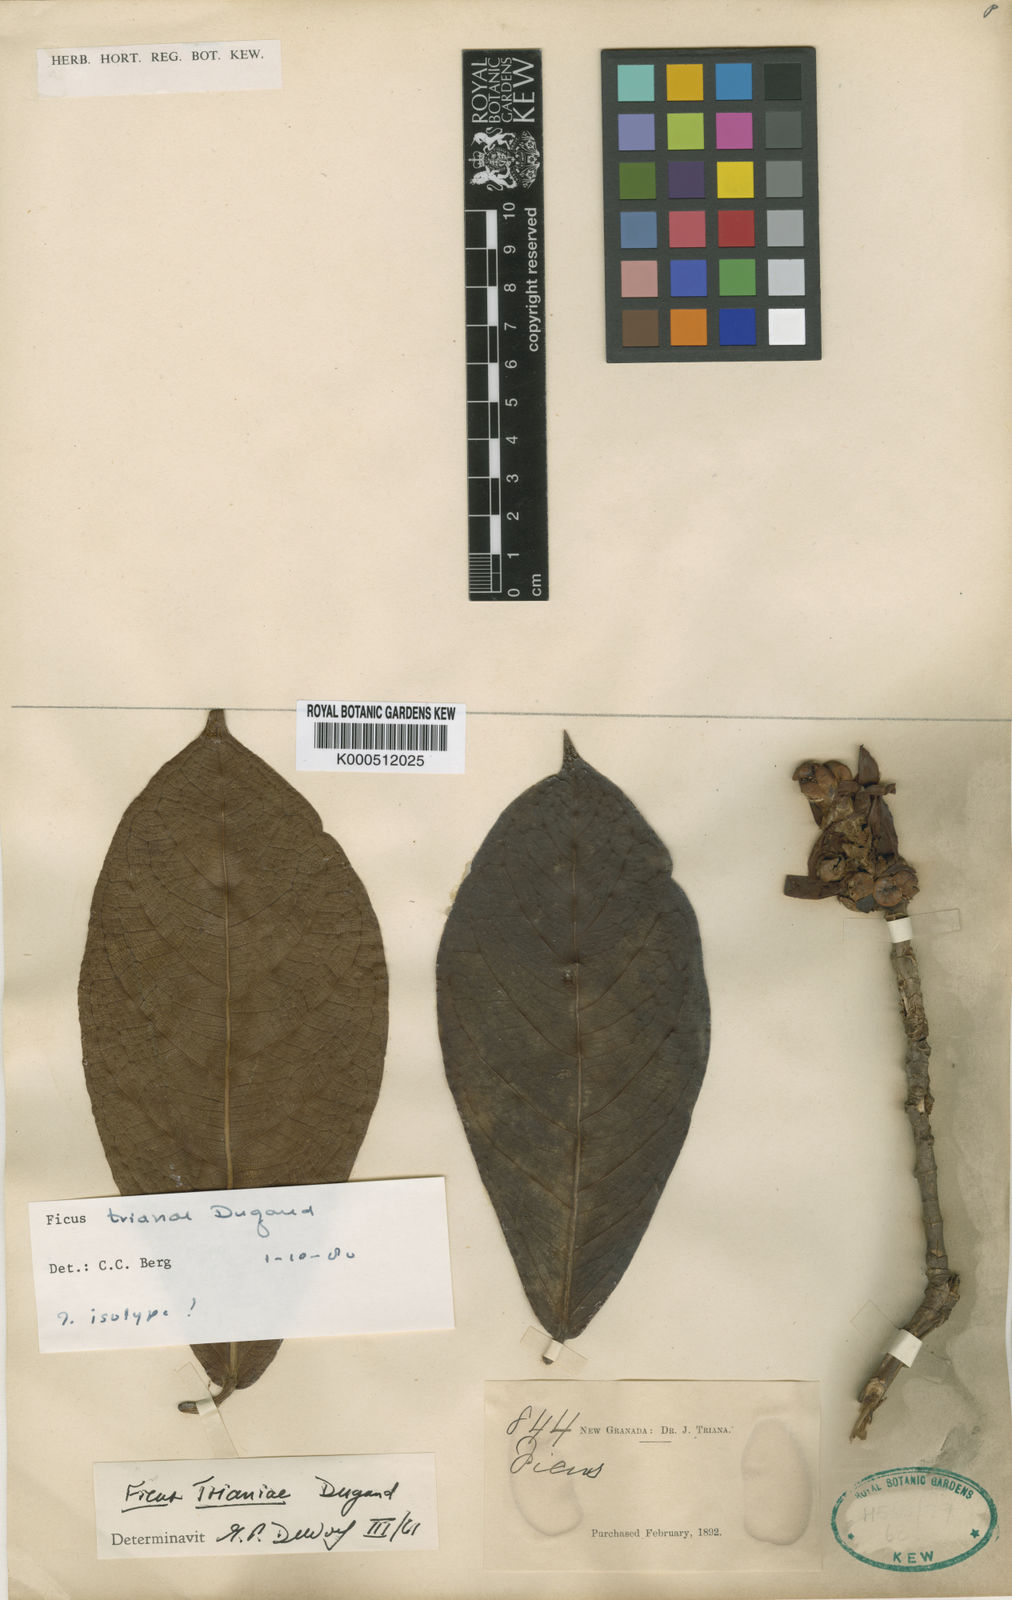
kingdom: Plantae
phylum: Tracheophyta
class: Magnoliopsida
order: Rosales
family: Moraceae
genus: Ficus
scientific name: Ficus trianae
